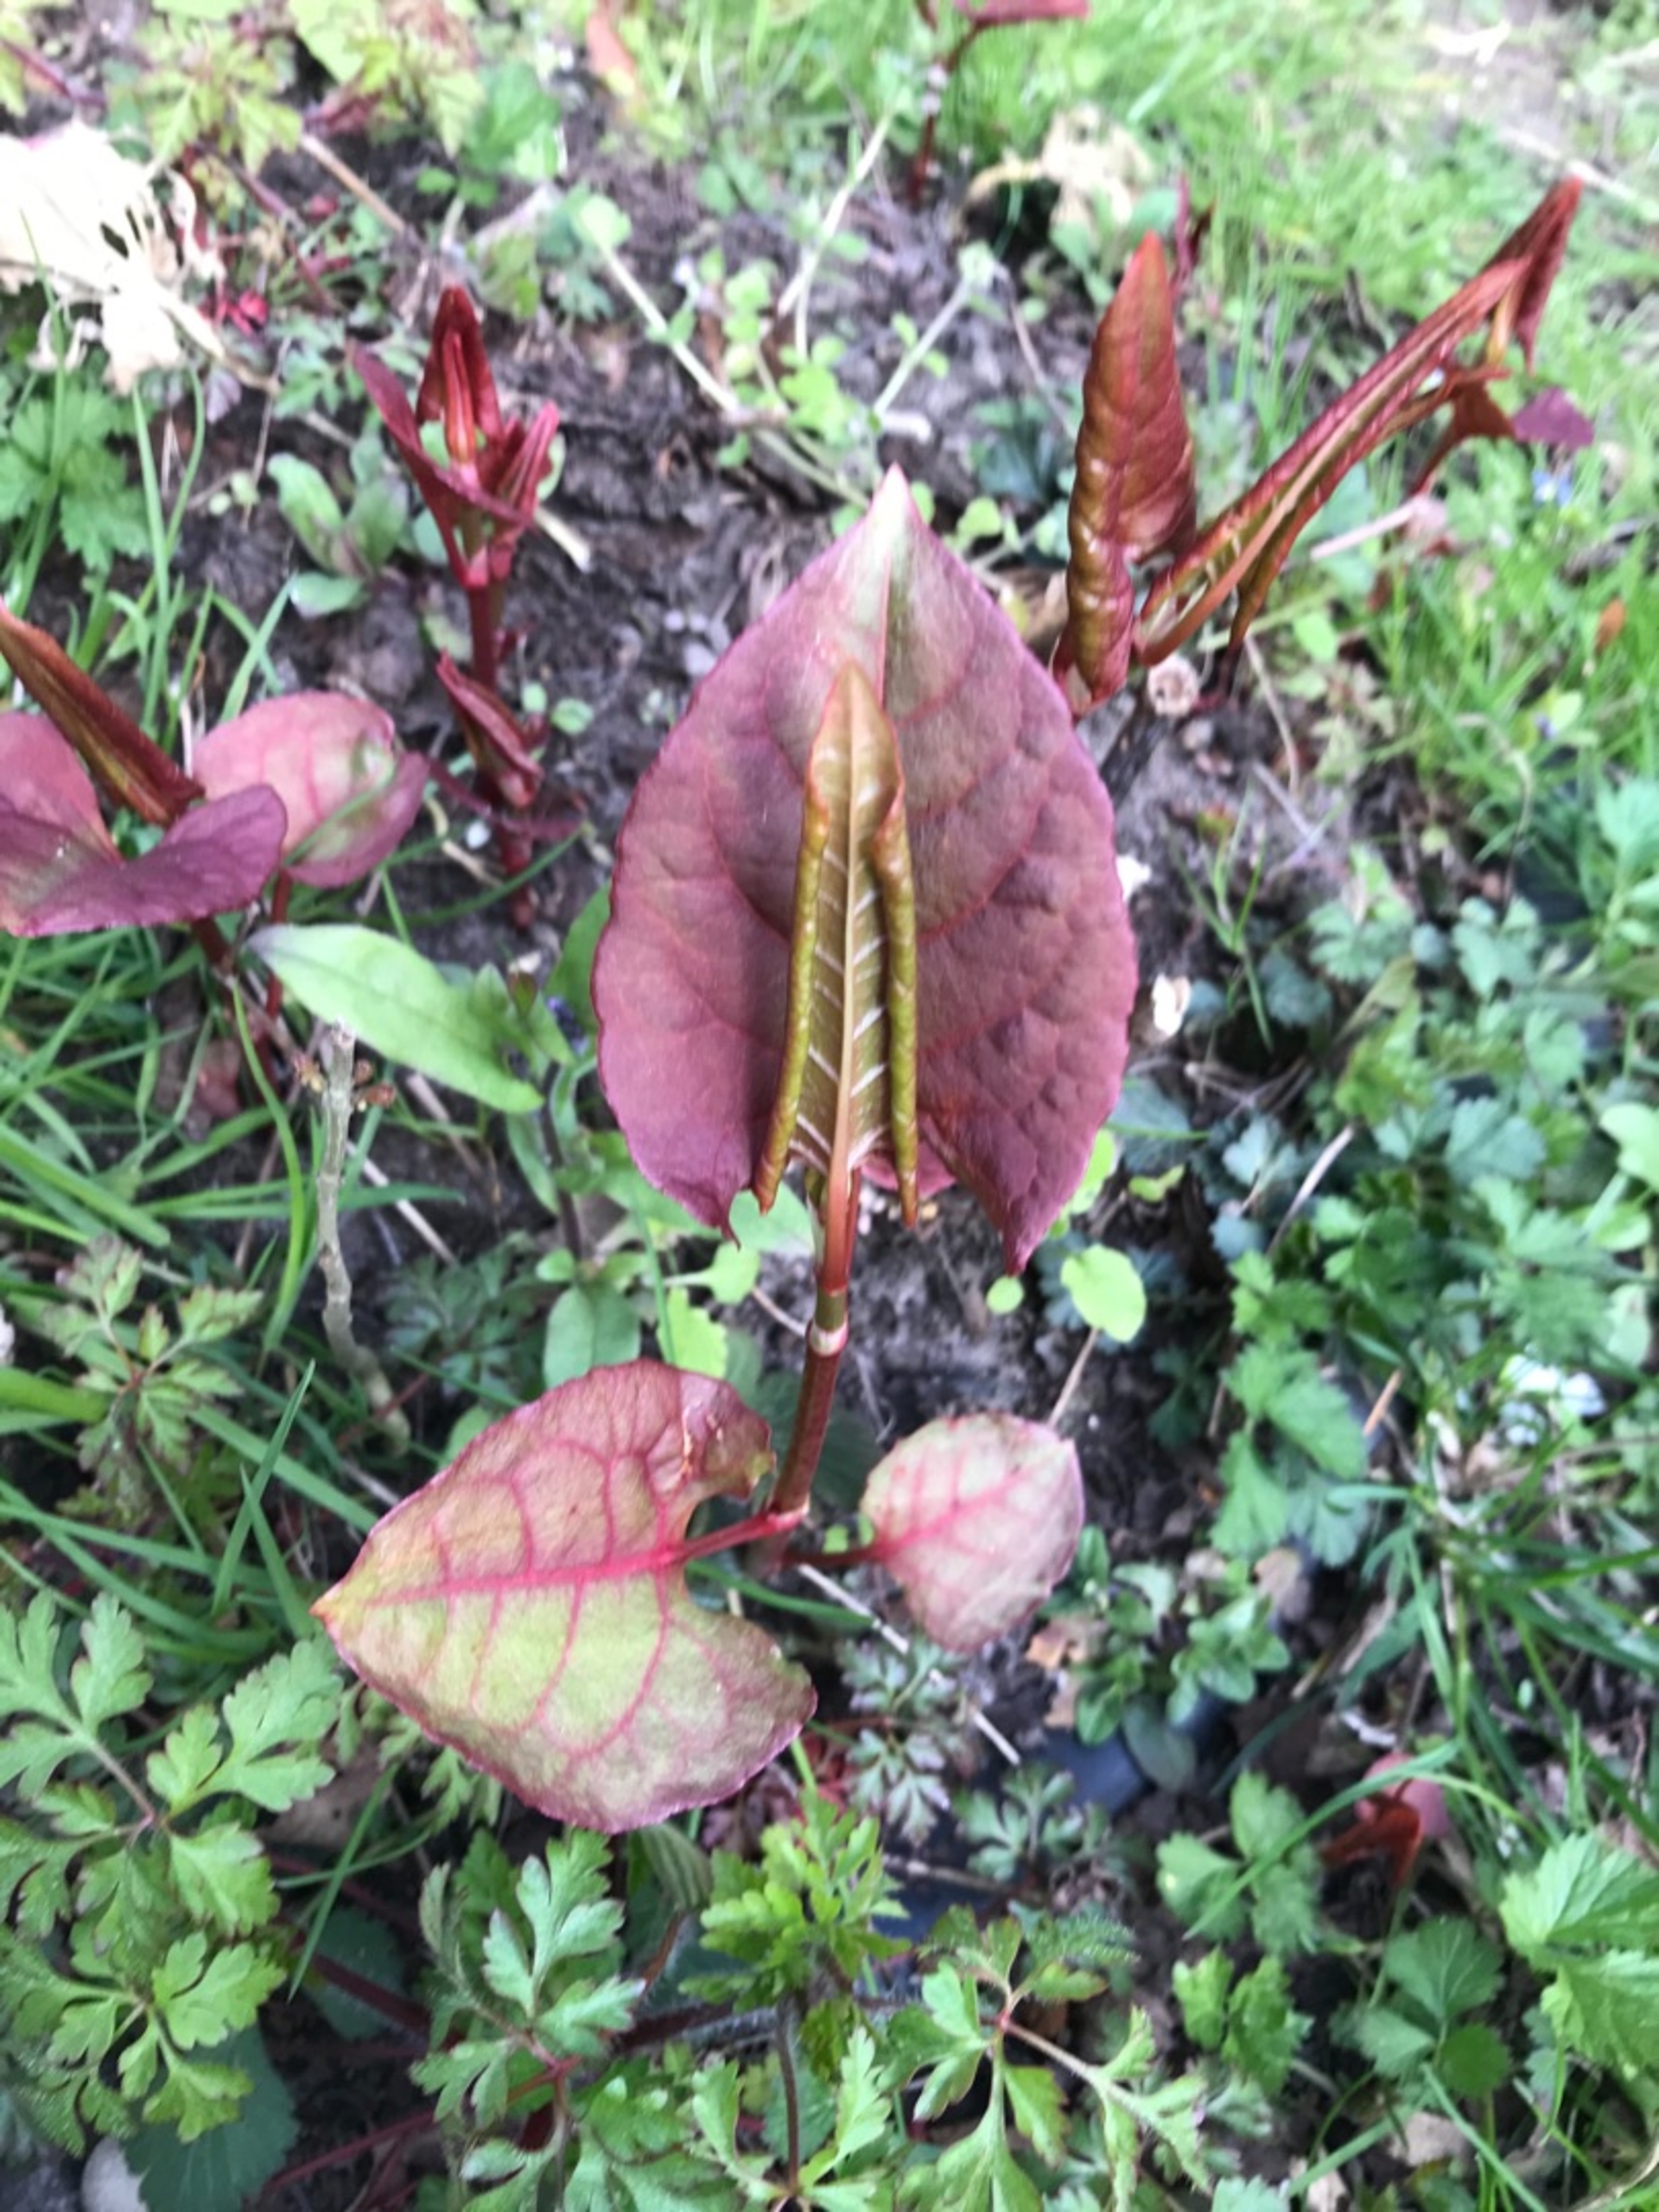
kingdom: Plantae
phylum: Tracheophyta
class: Magnoliopsida
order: Caryophyllales
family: Polygonaceae
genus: Reynoutria
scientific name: Reynoutria bohemica
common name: Hybrid-pileurt
